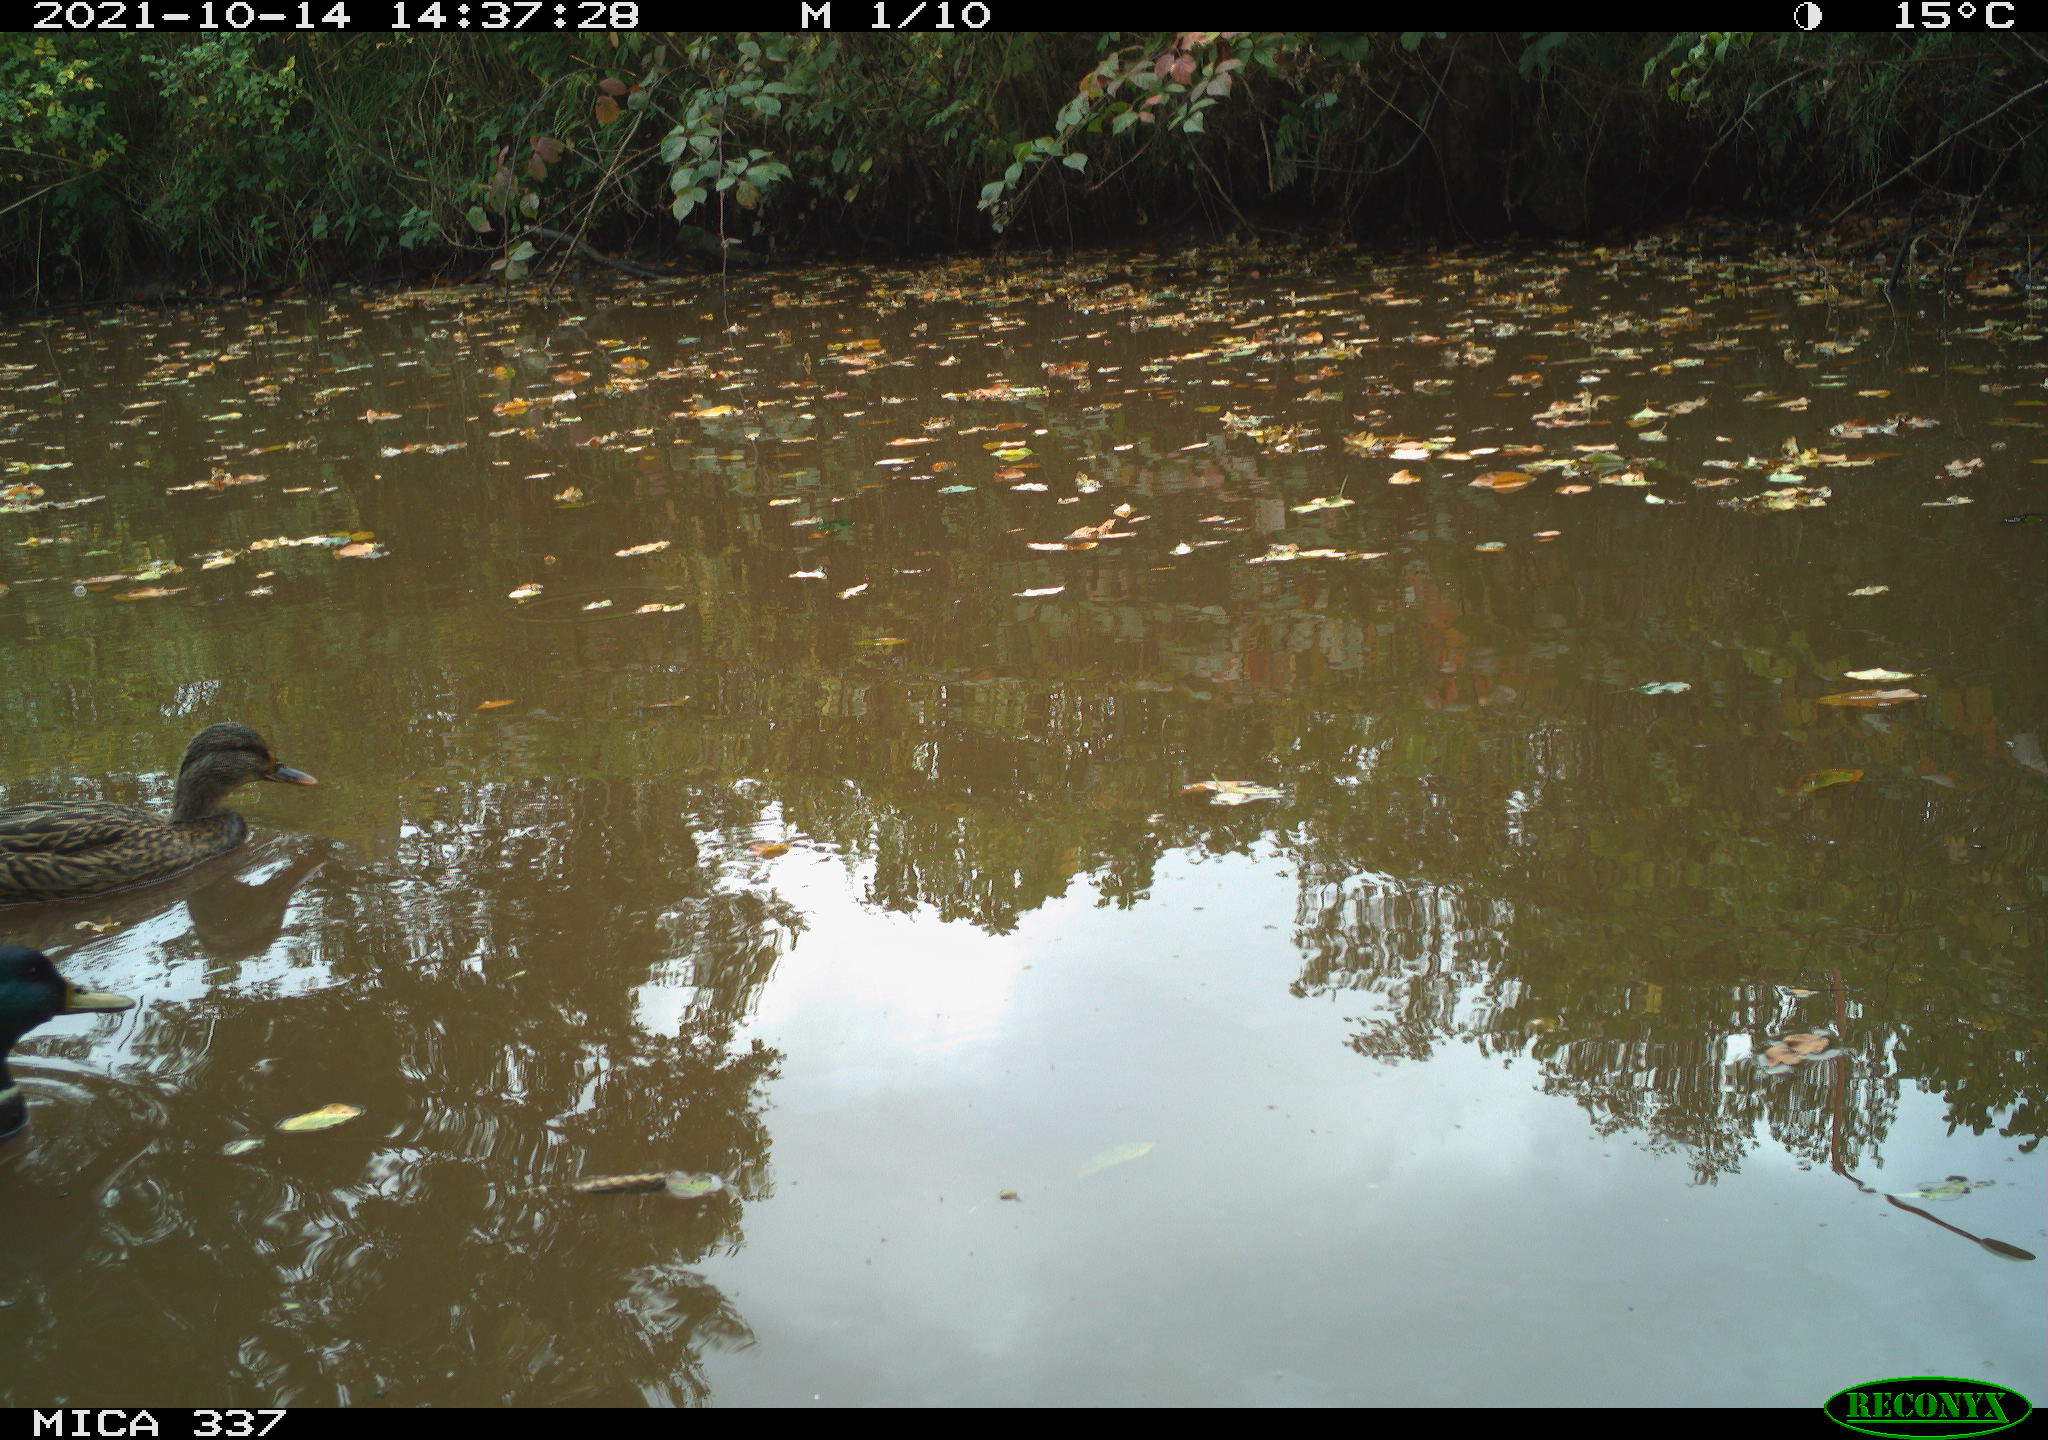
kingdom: Animalia
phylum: Chordata
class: Aves
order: Anseriformes
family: Anatidae
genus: Anas
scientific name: Anas platyrhynchos
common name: Mallard
